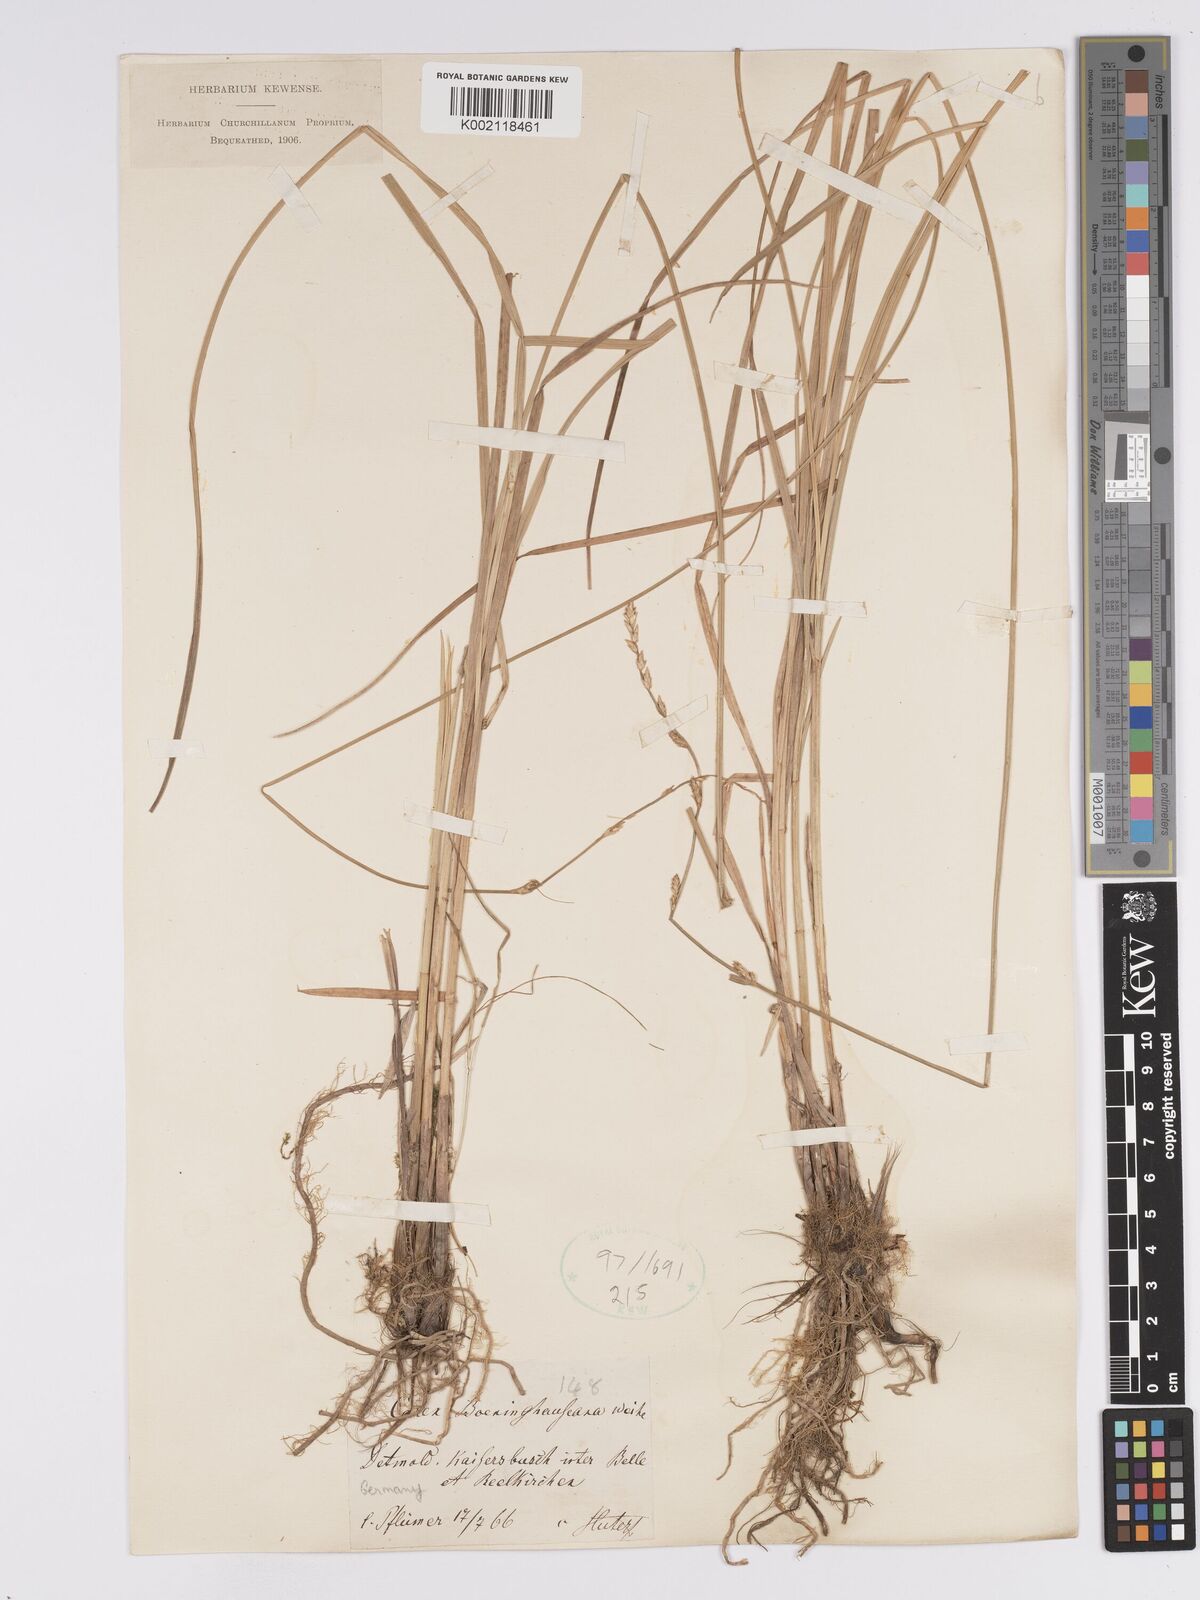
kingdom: Plantae
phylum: Tracheophyta
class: Liliopsida
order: Poales
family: Cyperaceae
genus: Carex
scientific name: Carex boenninghausiana
